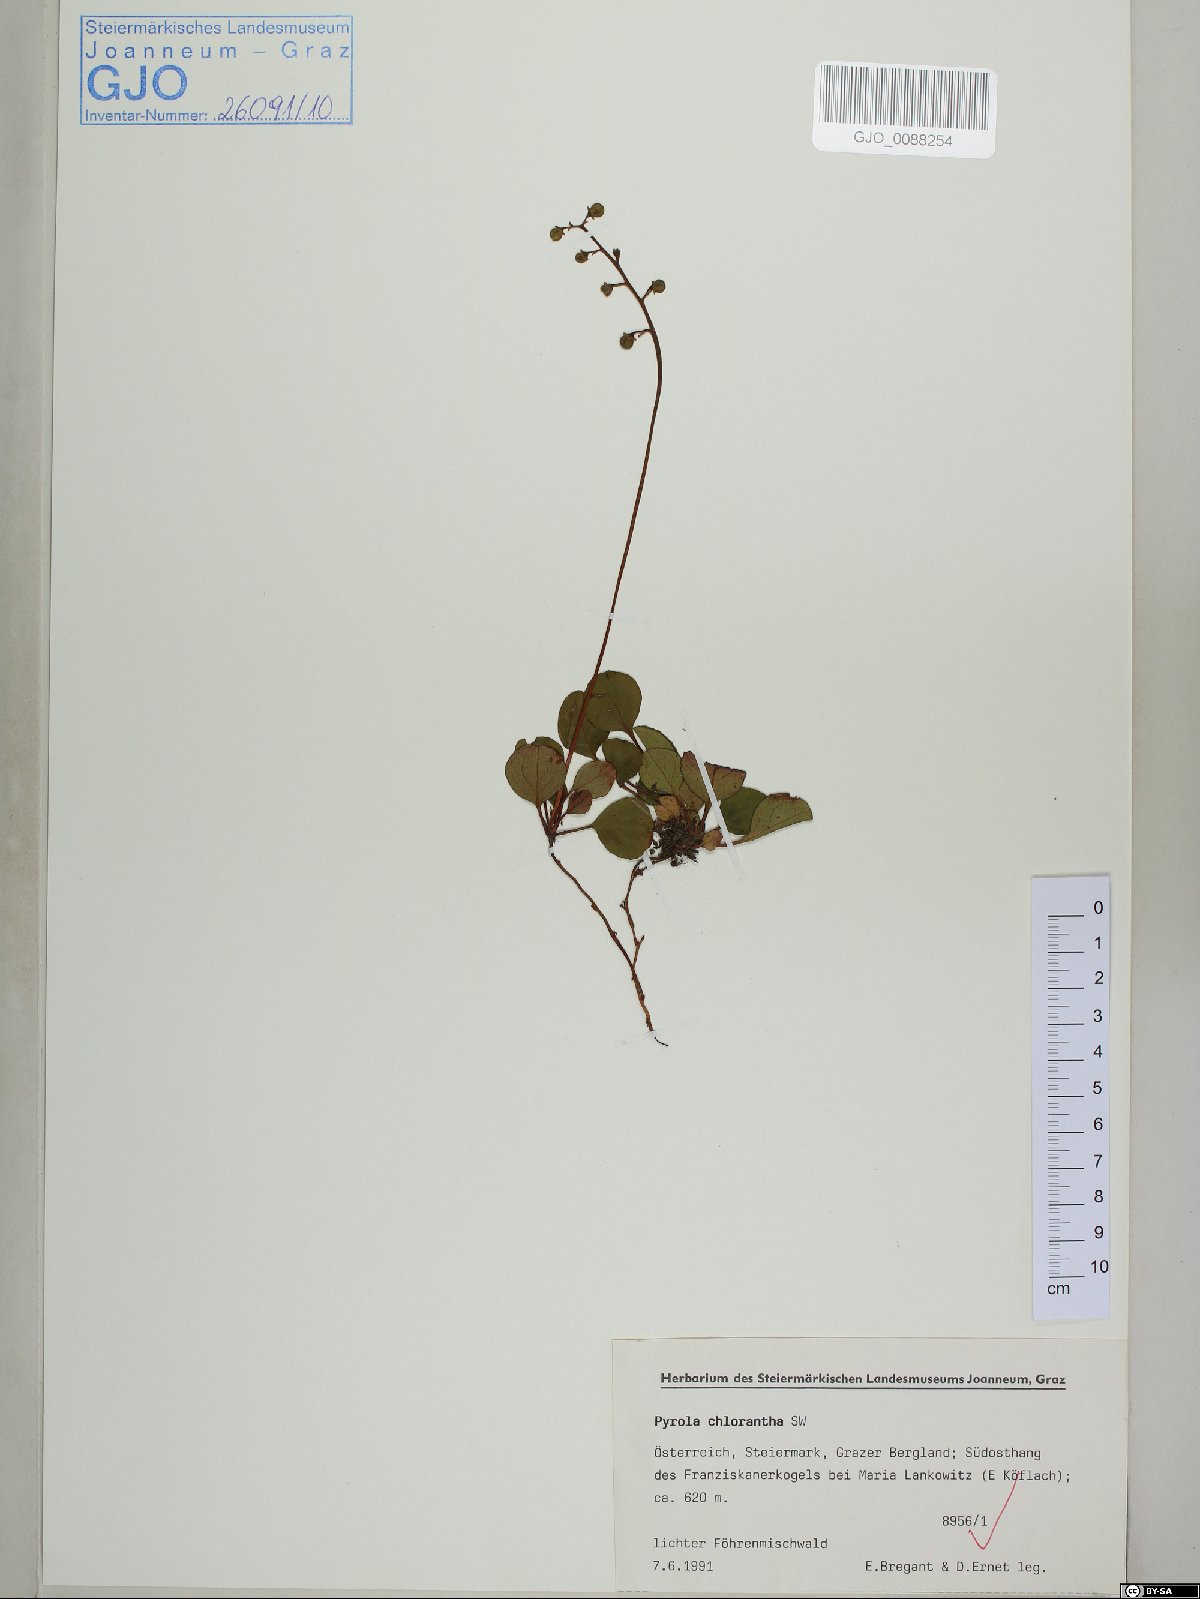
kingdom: Plantae
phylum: Tracheophyta
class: Magnoliopsida
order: Ericales
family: Ericaceae
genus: Pyrola
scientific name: Pyrola chlorantha
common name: Green wintergreen
